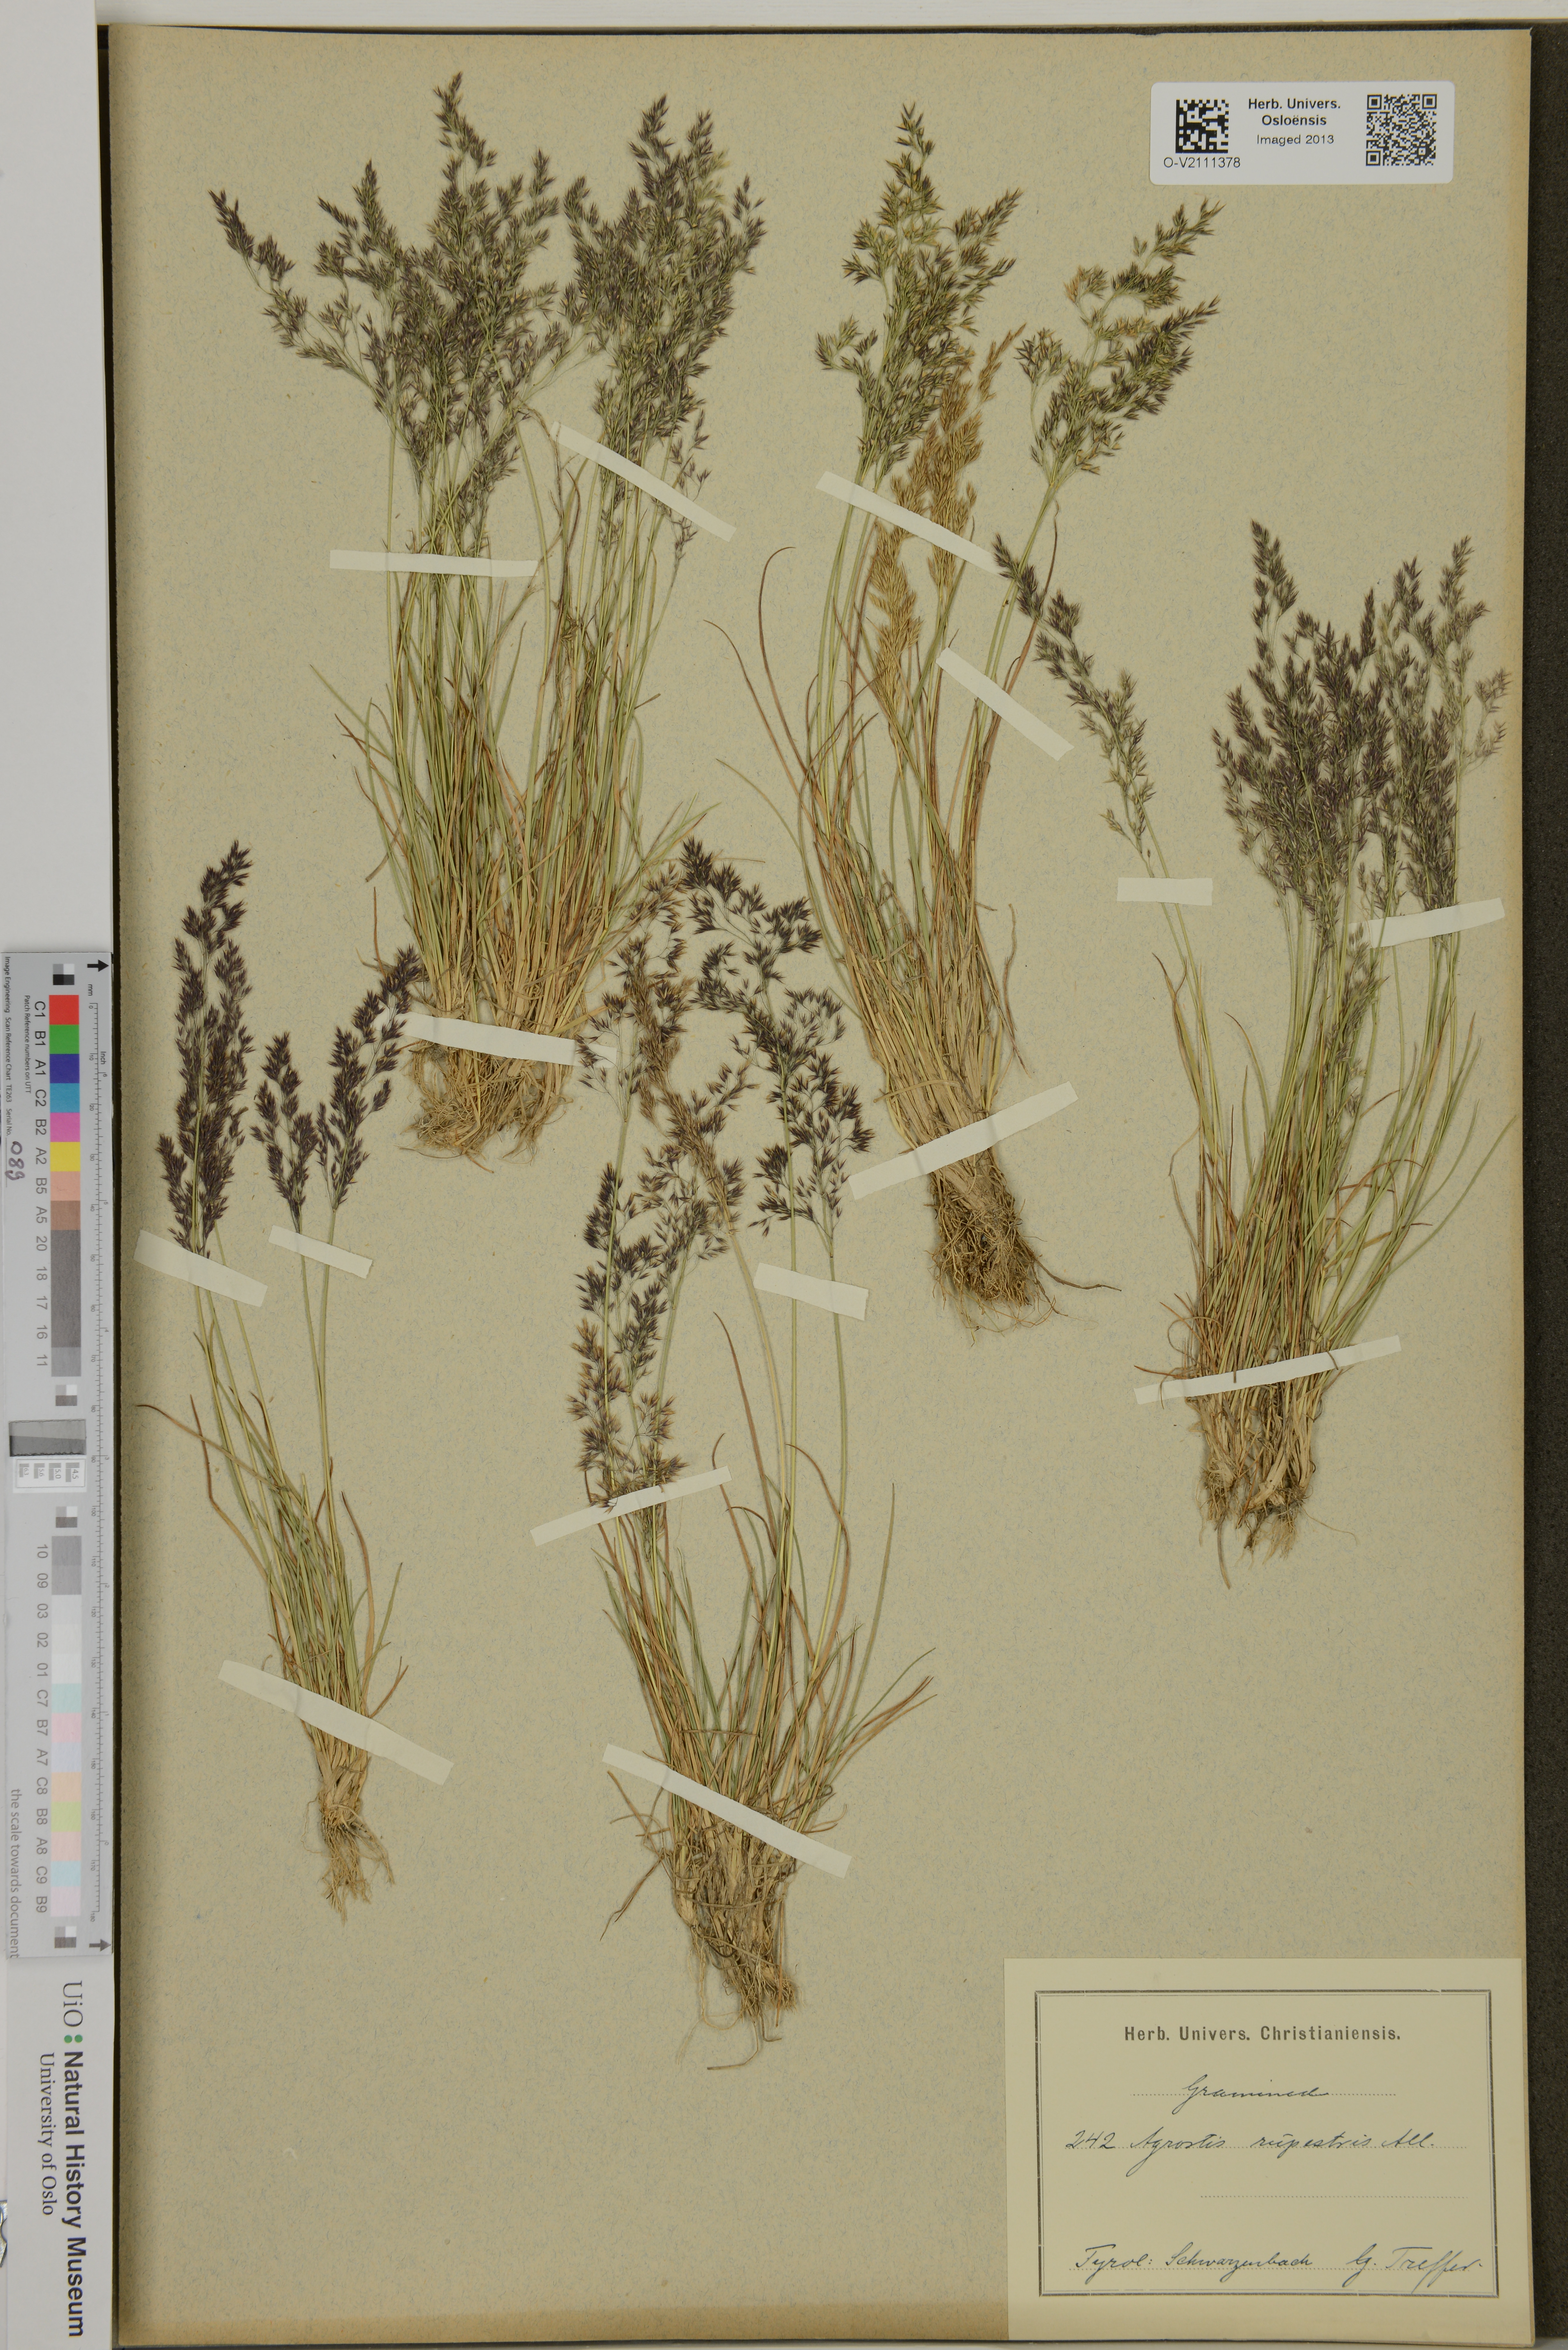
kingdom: Plantae
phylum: Tracheophyta
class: Liliopsida
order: Poales
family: Poaceae
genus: Agrostis
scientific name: Agrostis rupestris
